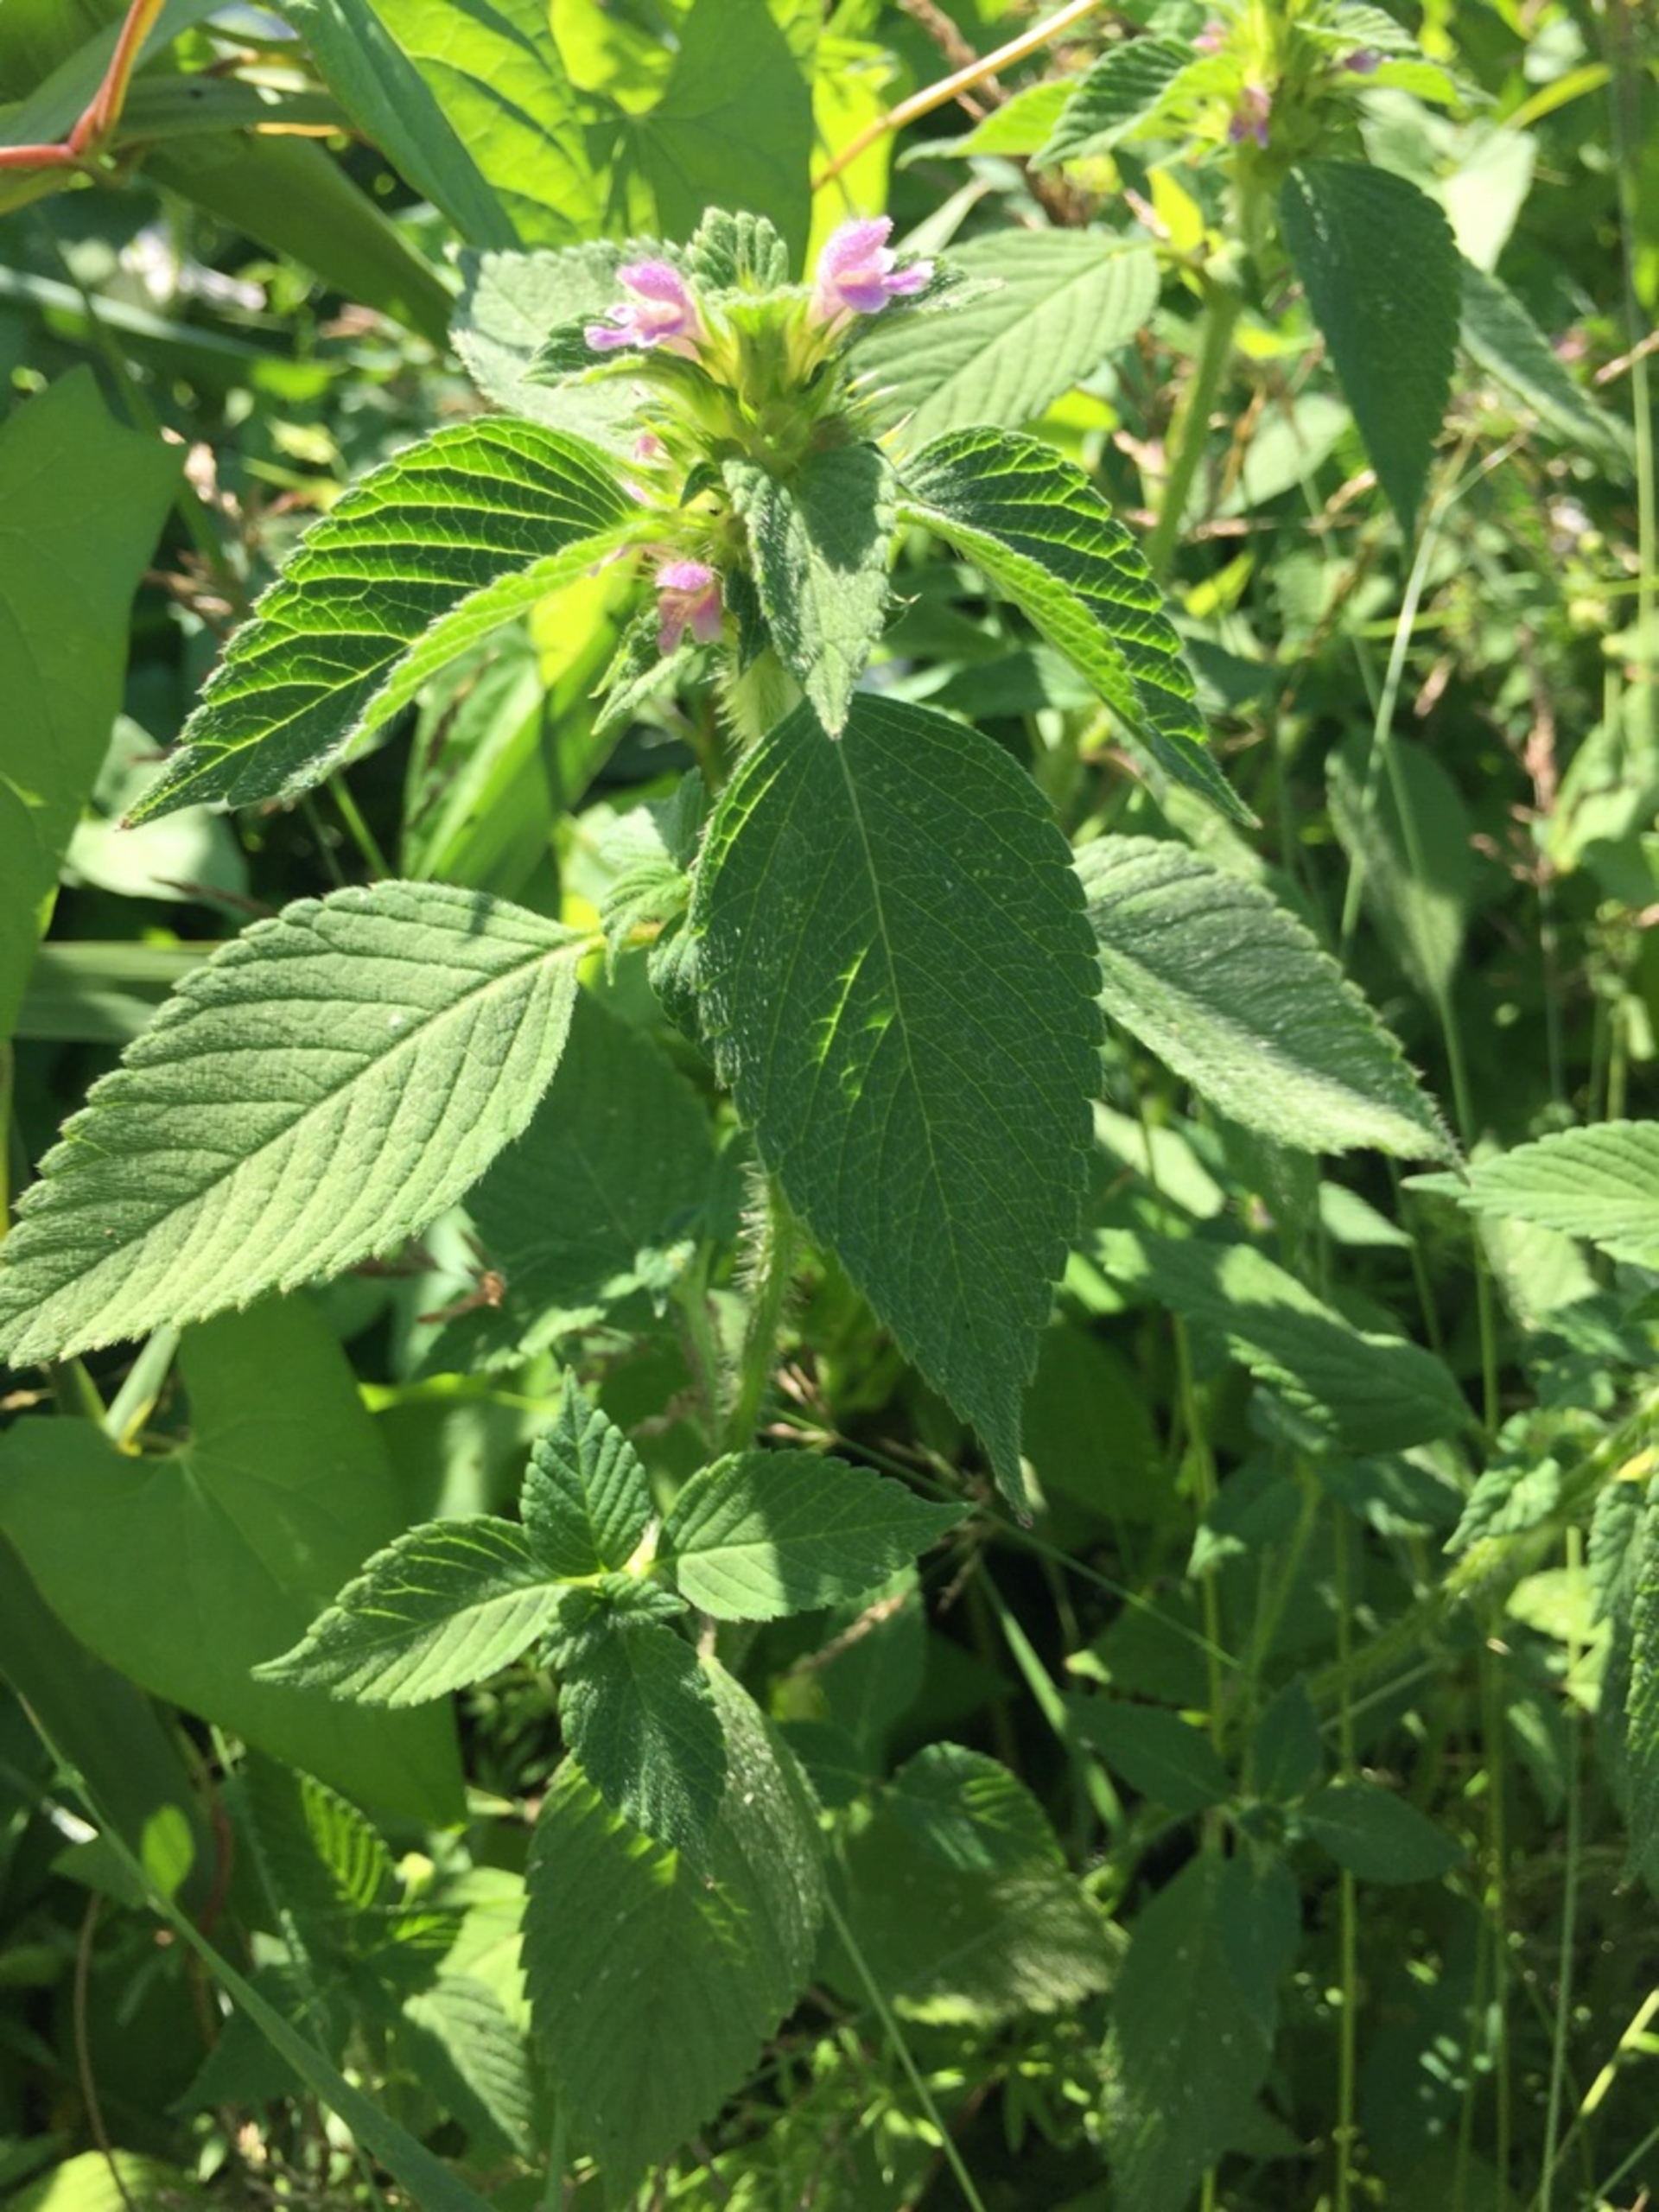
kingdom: Plantae
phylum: Tracheophyta
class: Magnoliopsida
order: Lamiales
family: Lamiaceae
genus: Galeopsis
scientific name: Galeopsis bifida
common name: Skov-hanekro
